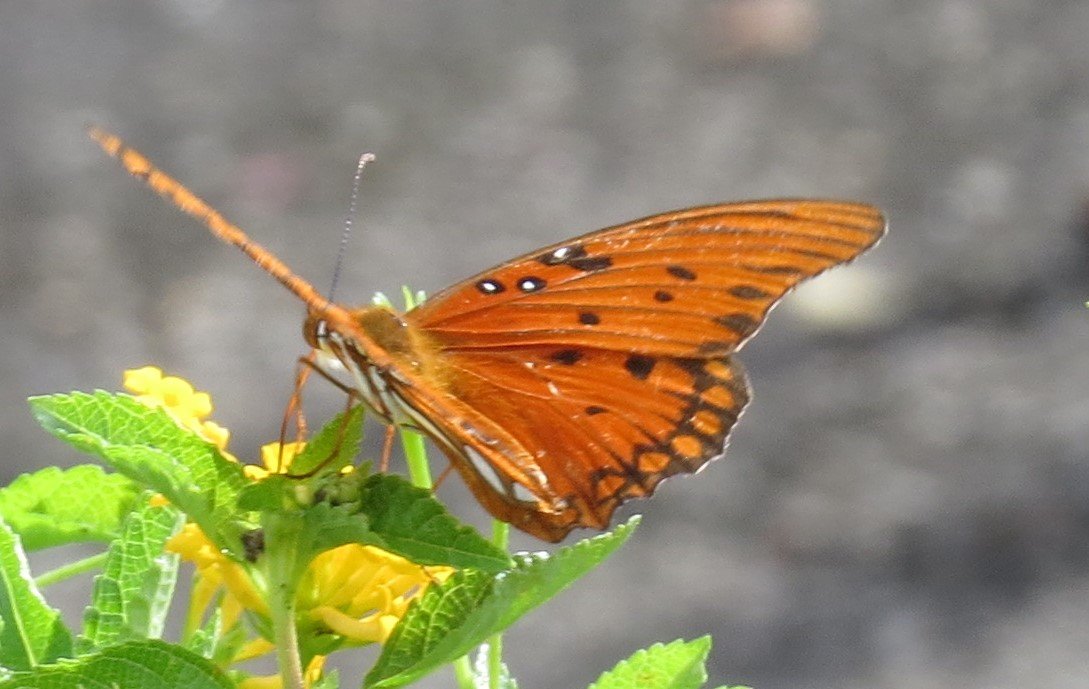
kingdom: Animalia
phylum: Arthropoda
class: Insecta
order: Lepidoptera
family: Nymphalidae
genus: Dione
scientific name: Dione vanillae
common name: Gulf Fritillary
